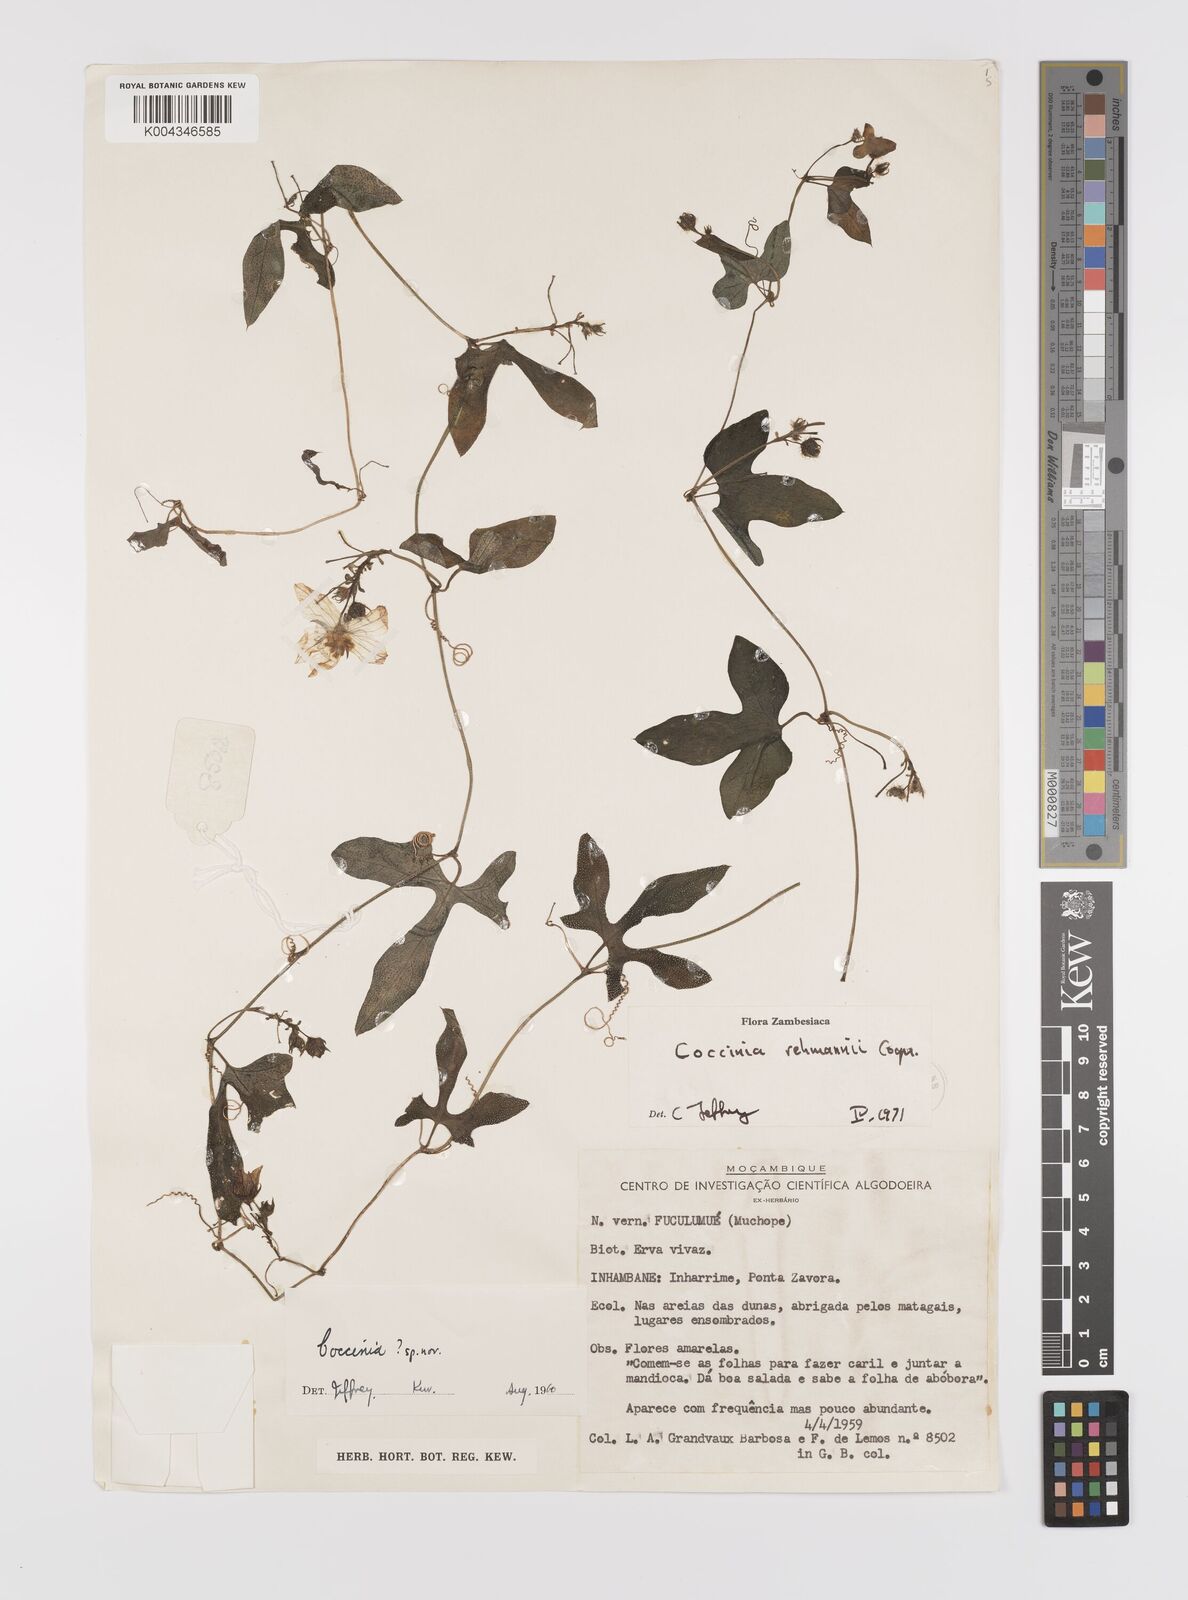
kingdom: Plantae
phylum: Tracheophyta
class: Magnoliopsida
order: Cucurbitales
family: Cucurbitaceae
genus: Coccinia
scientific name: Coccinia rehmannii
